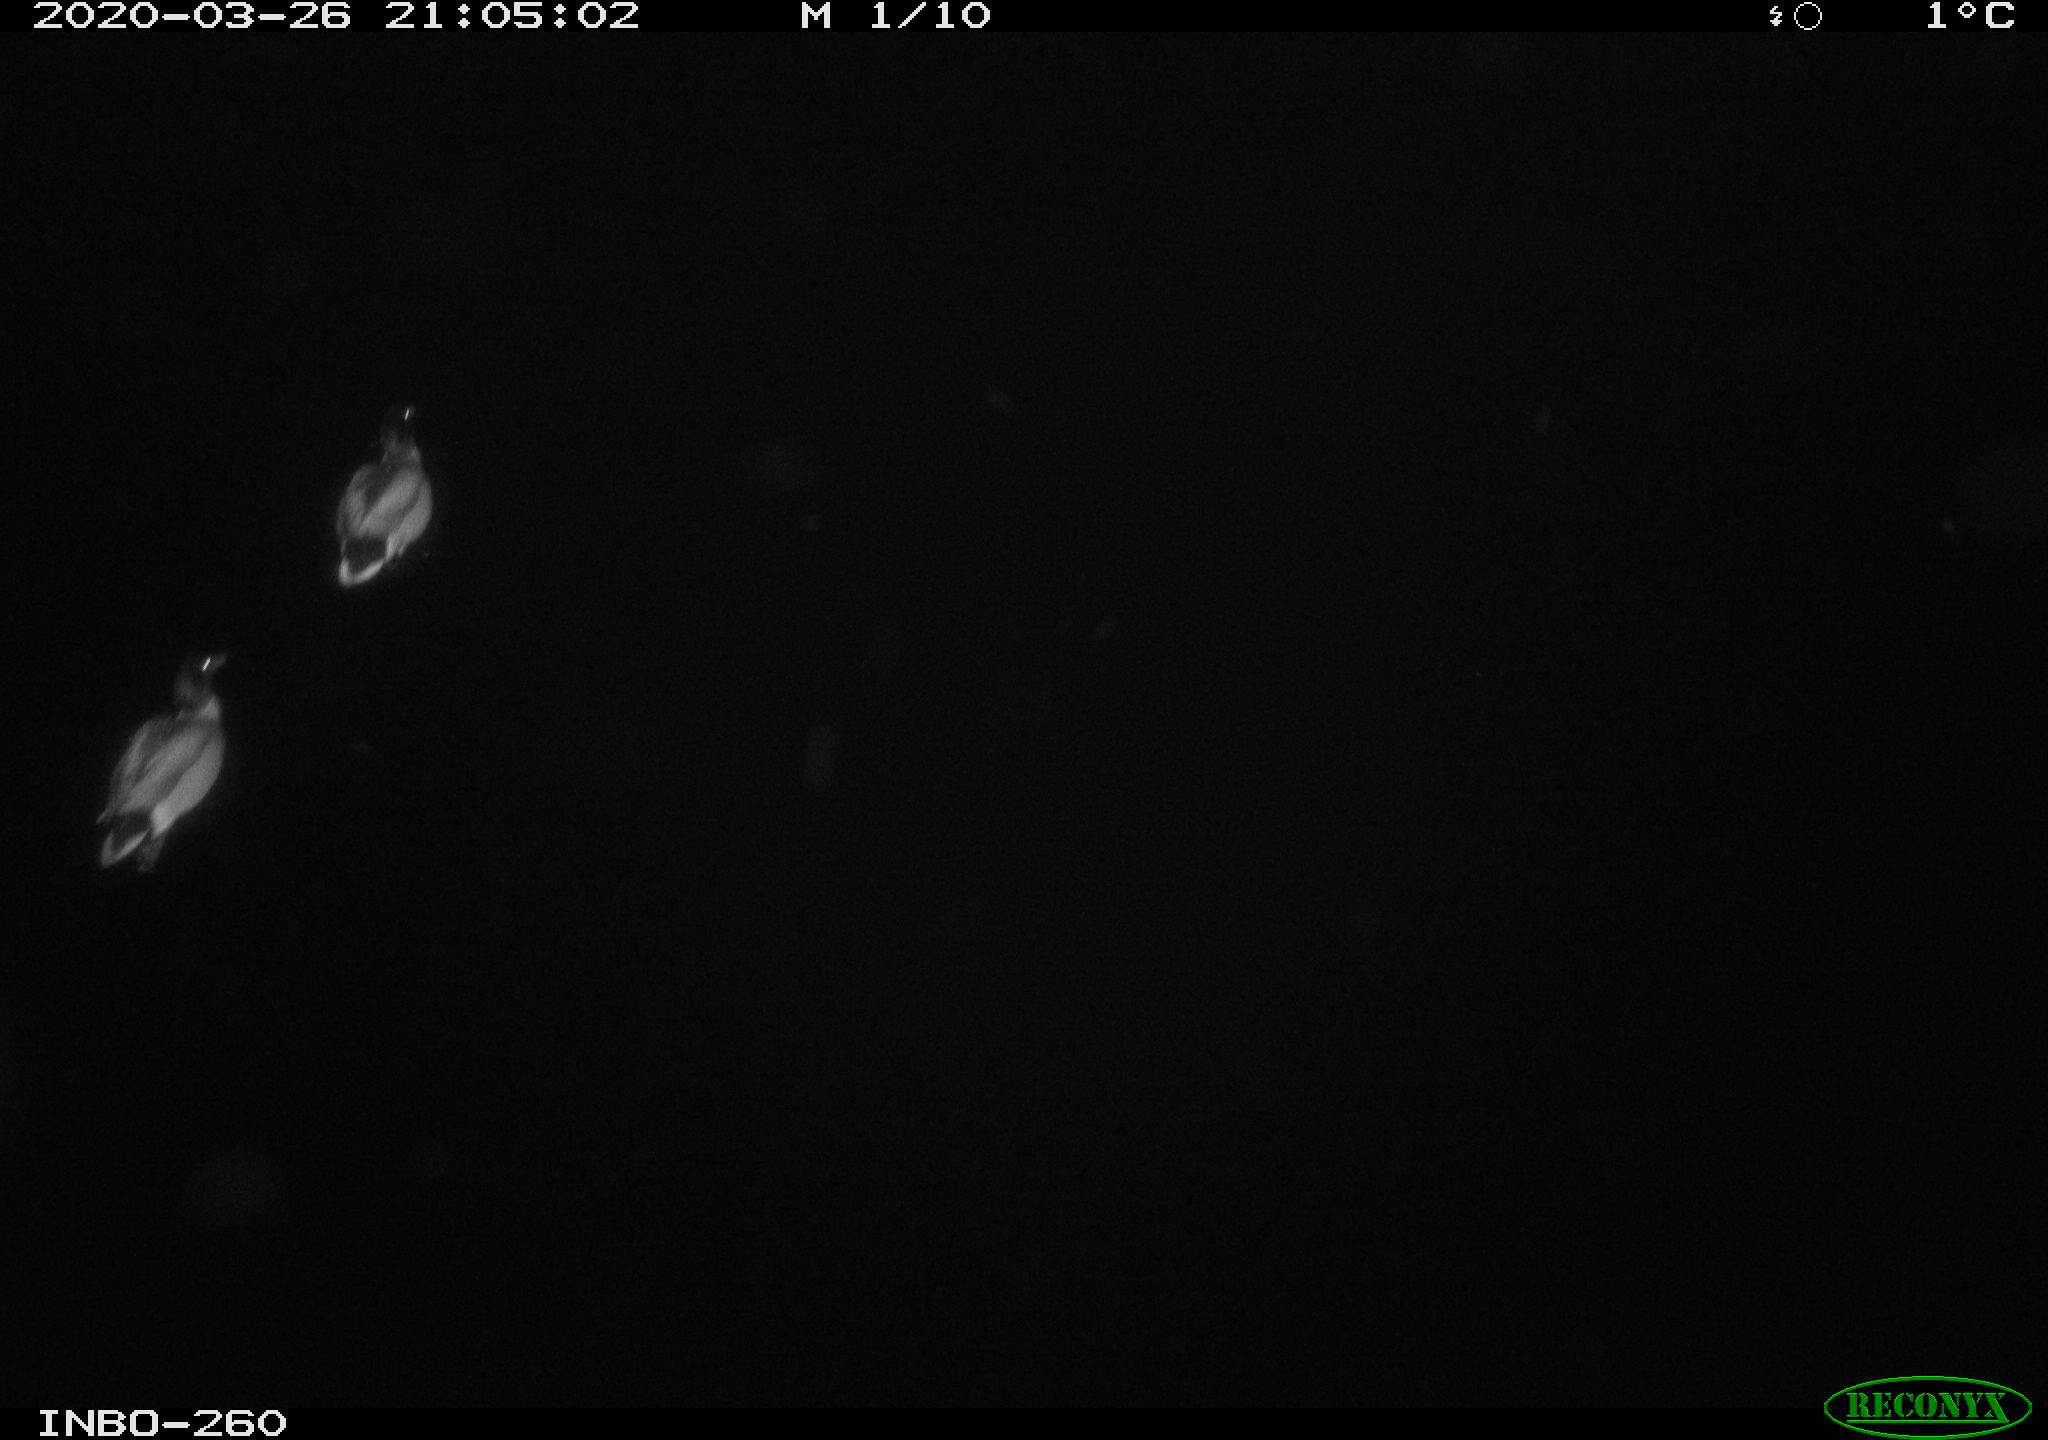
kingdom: Animalia
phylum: Chordata
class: Aves
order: Anseriformes
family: Anatidae
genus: Anas
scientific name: Anas platyrhynchos
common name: Mallard
